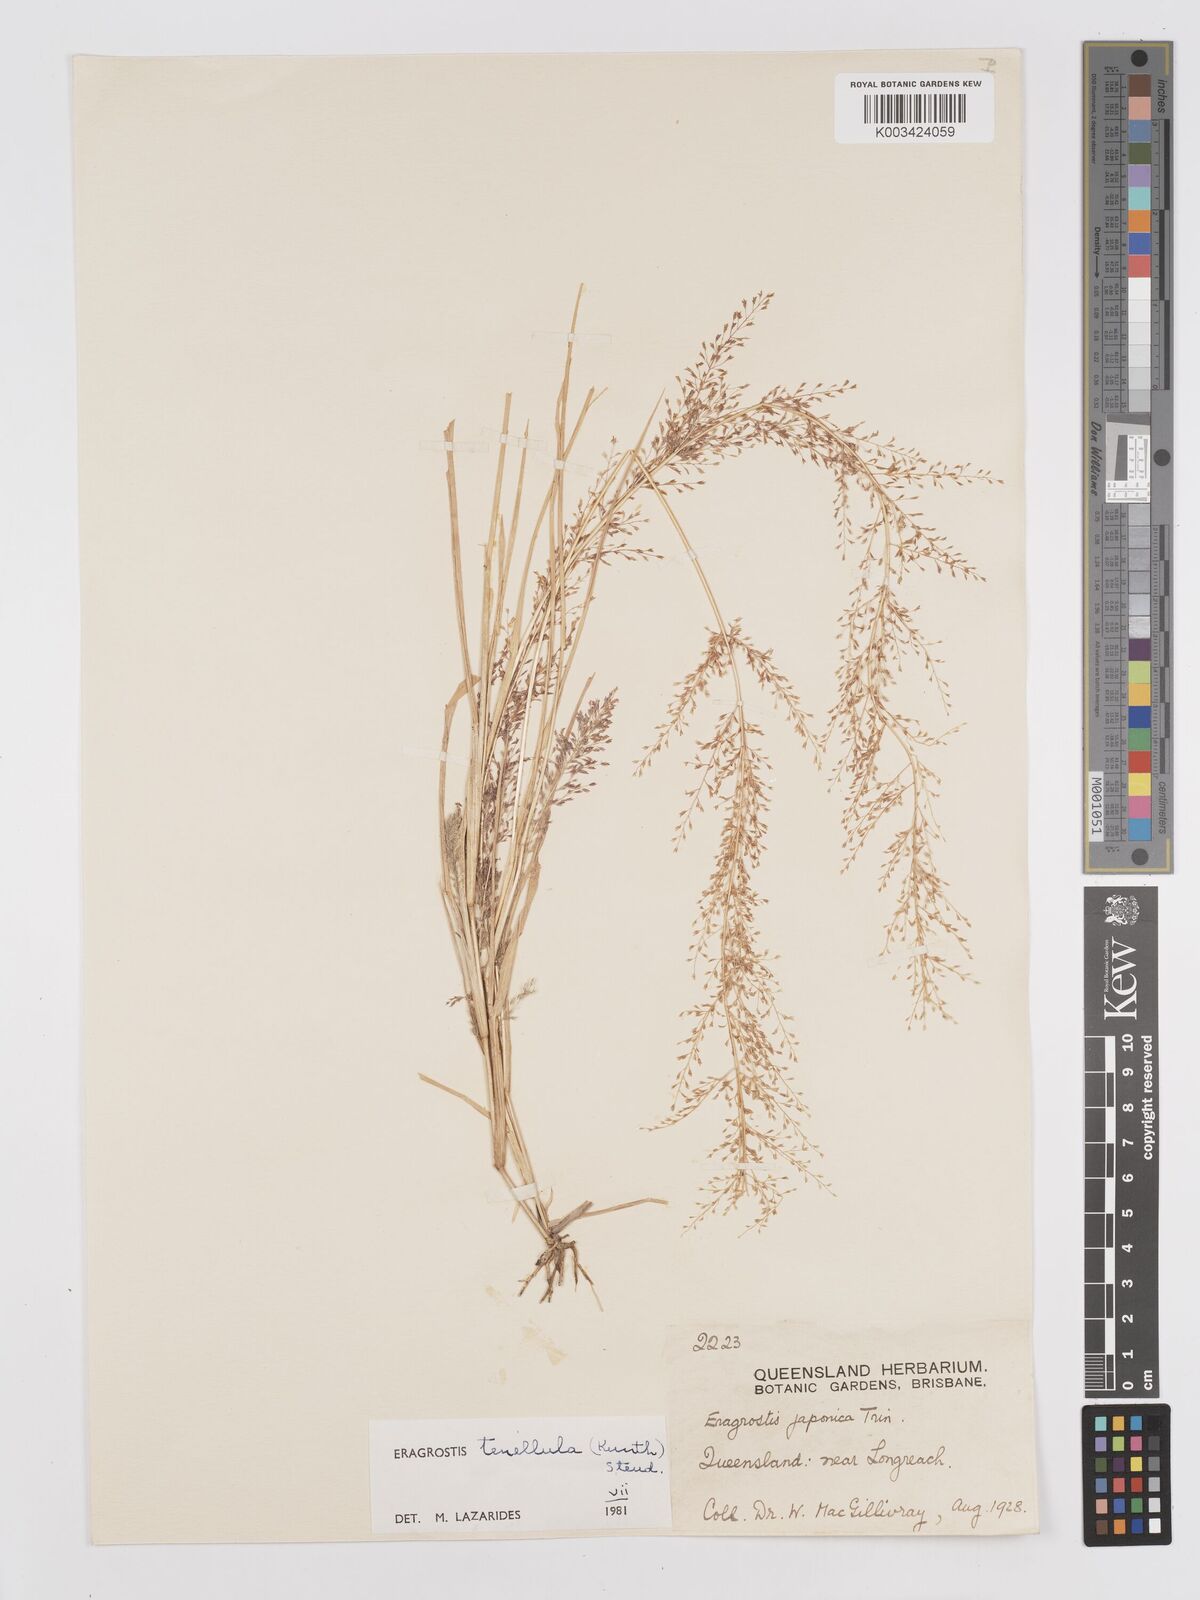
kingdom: Plantae
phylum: Tracheophyta
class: Liliopsida
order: Poales
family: Poaceae
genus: Eragrostis
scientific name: Eragrostis tenellula
